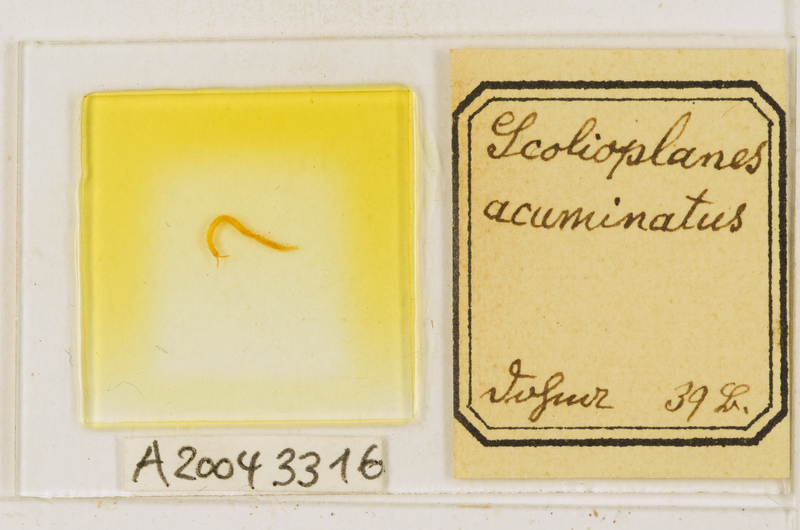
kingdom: Animalia
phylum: Arthropoda
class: Chilopoda
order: Geophilomorpha
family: Linotaeniidae
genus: Strigamia
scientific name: Strigamia acuminata
